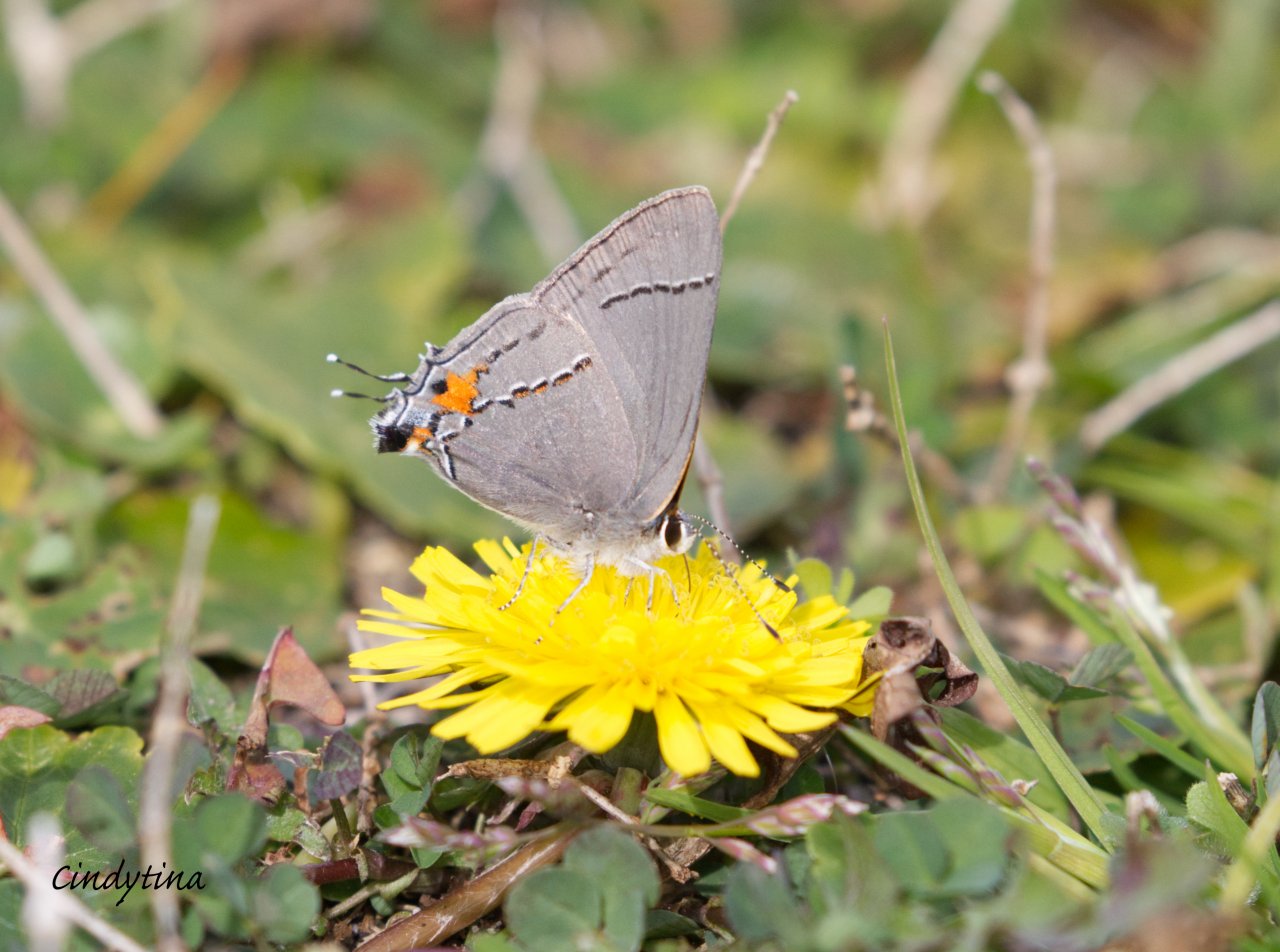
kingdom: Animalia
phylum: Arthropoda
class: Insecta
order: Lepidoptera
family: Lycaenidae
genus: Strymon
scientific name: Strymon melinus
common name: Gray Hairstreak
